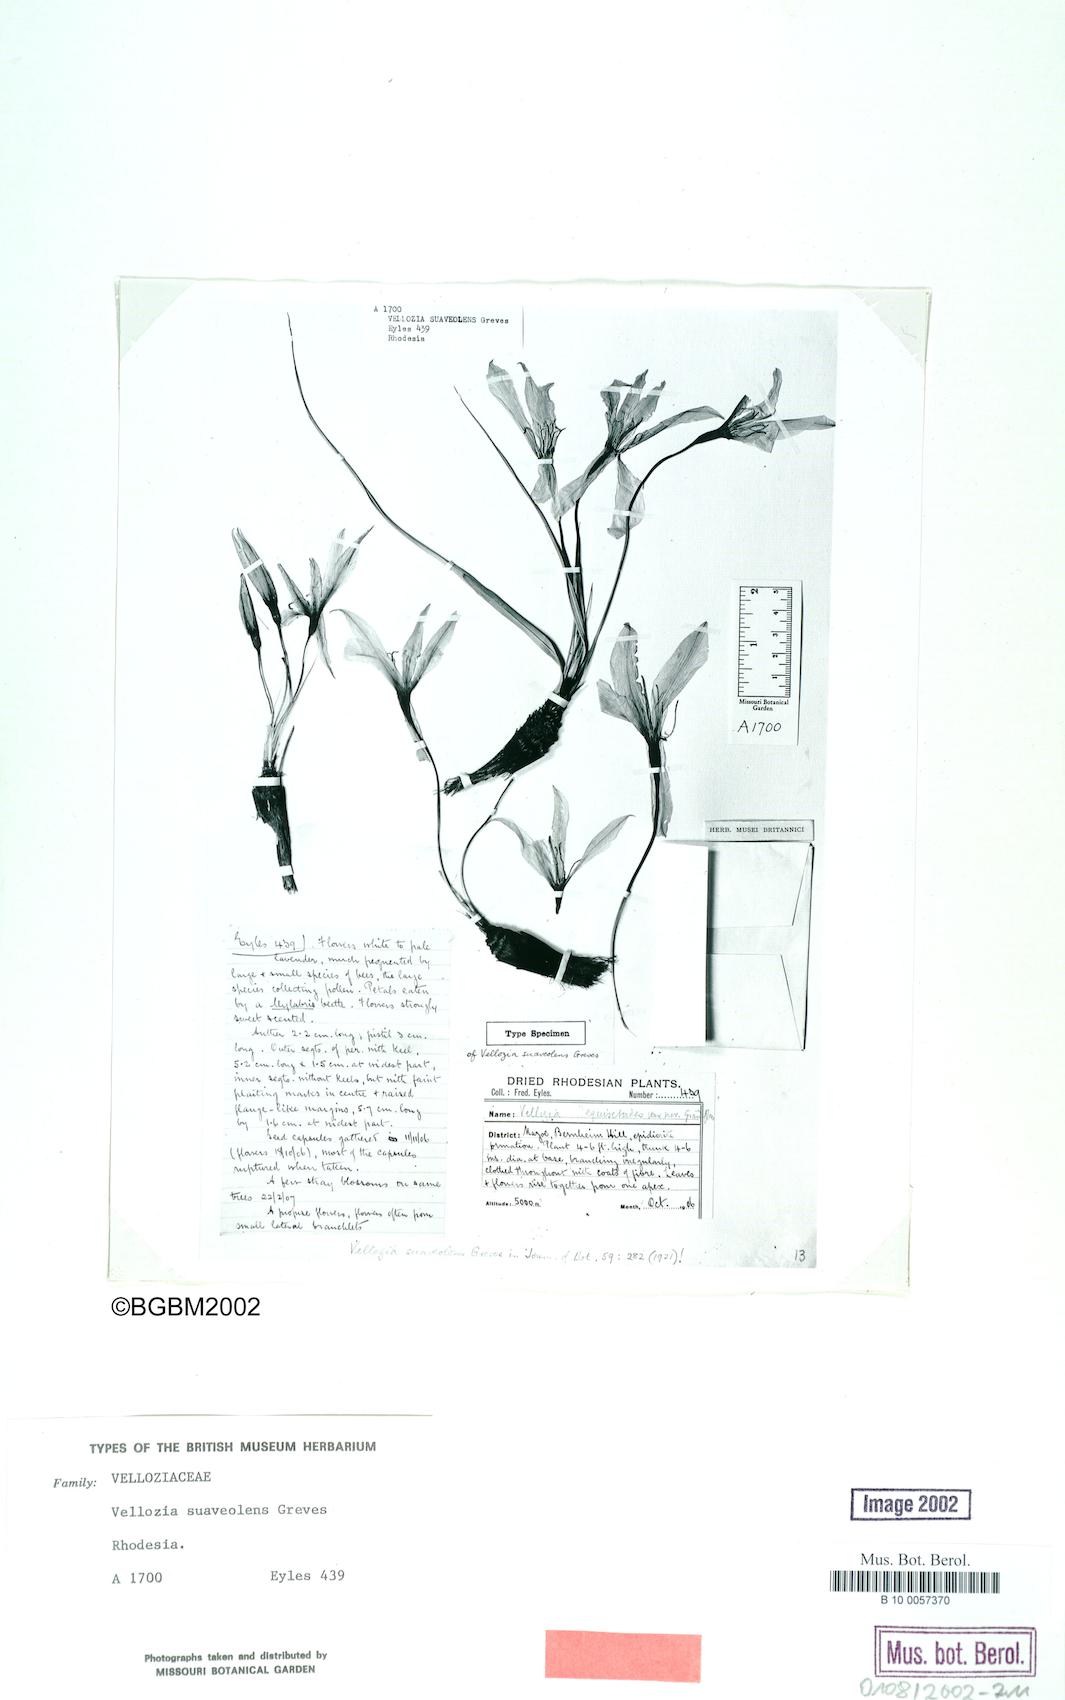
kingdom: Plantae
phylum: Tracheophyta
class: Liliopsida
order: Pandanales
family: Velloziaceae
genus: Xerophyta
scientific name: Xerophyta suaveolens
